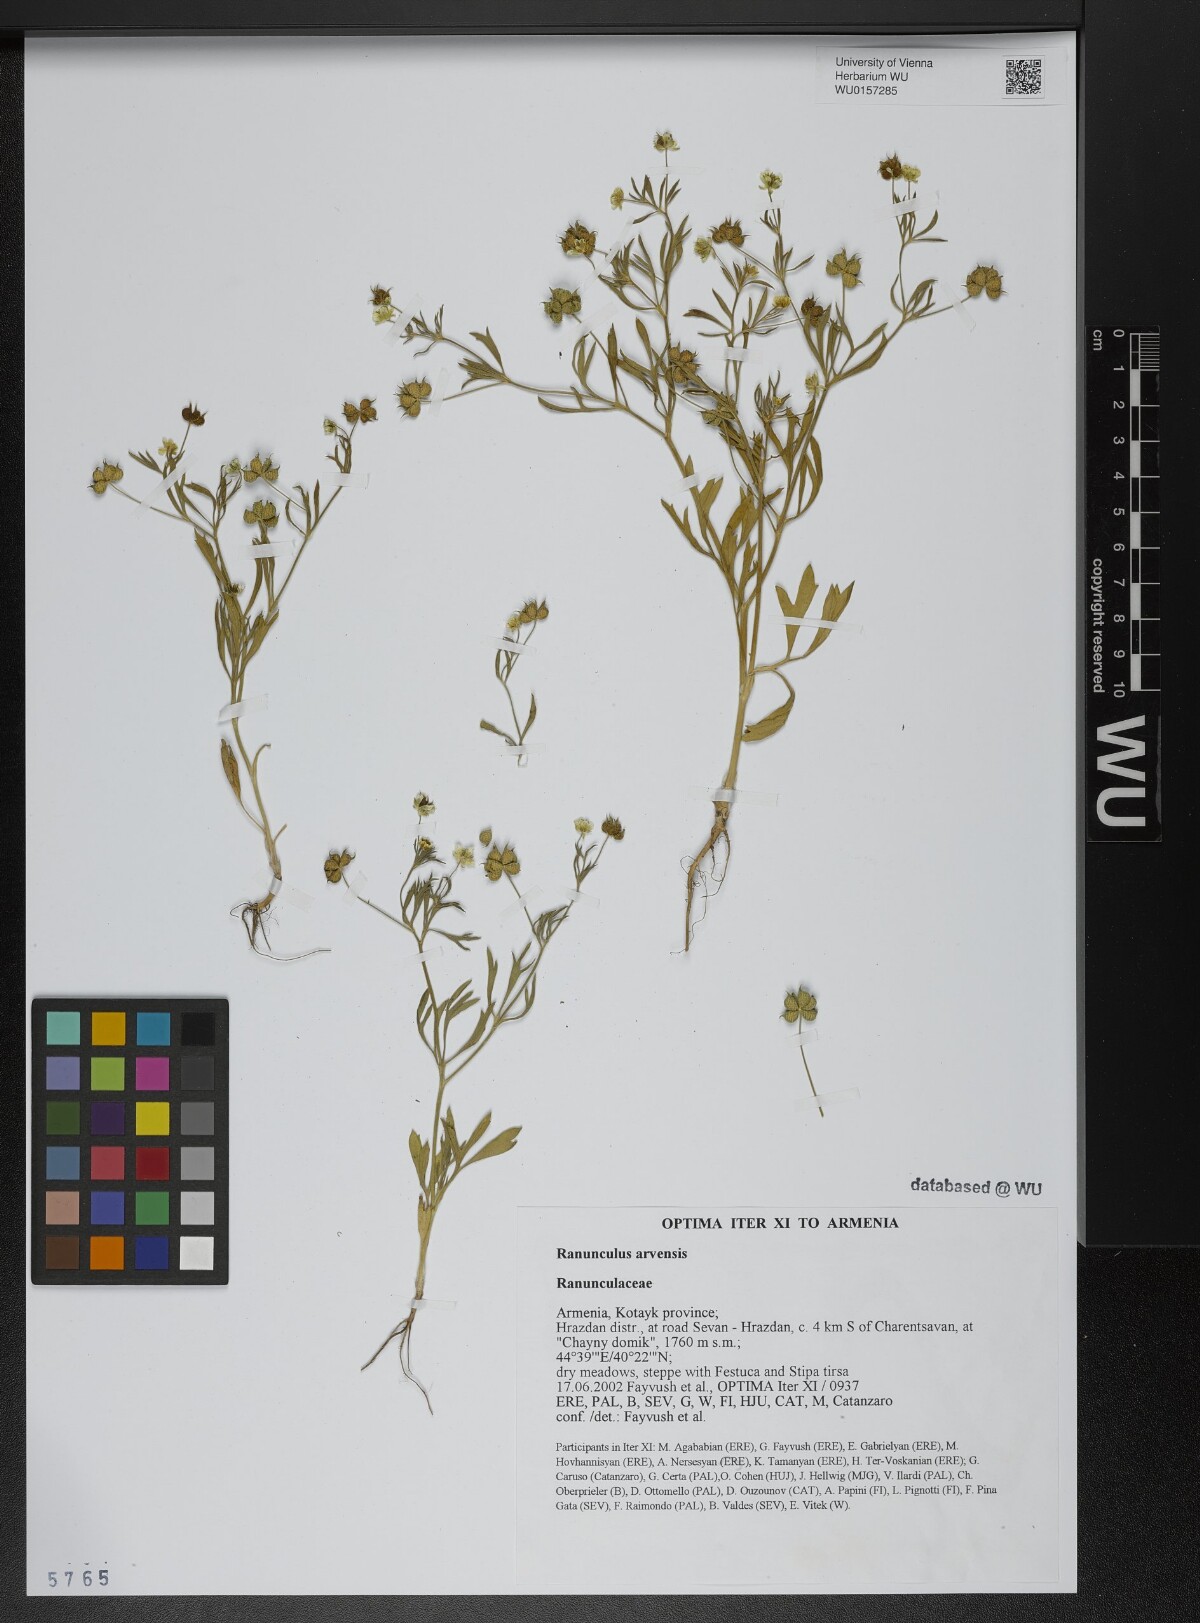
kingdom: Plantae
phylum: Tracheophyta
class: Magnoliopsida
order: Ranunculales
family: Ranunculaceae
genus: Ranunculus
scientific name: Ranunculus arvensis
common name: Corn buttercup
